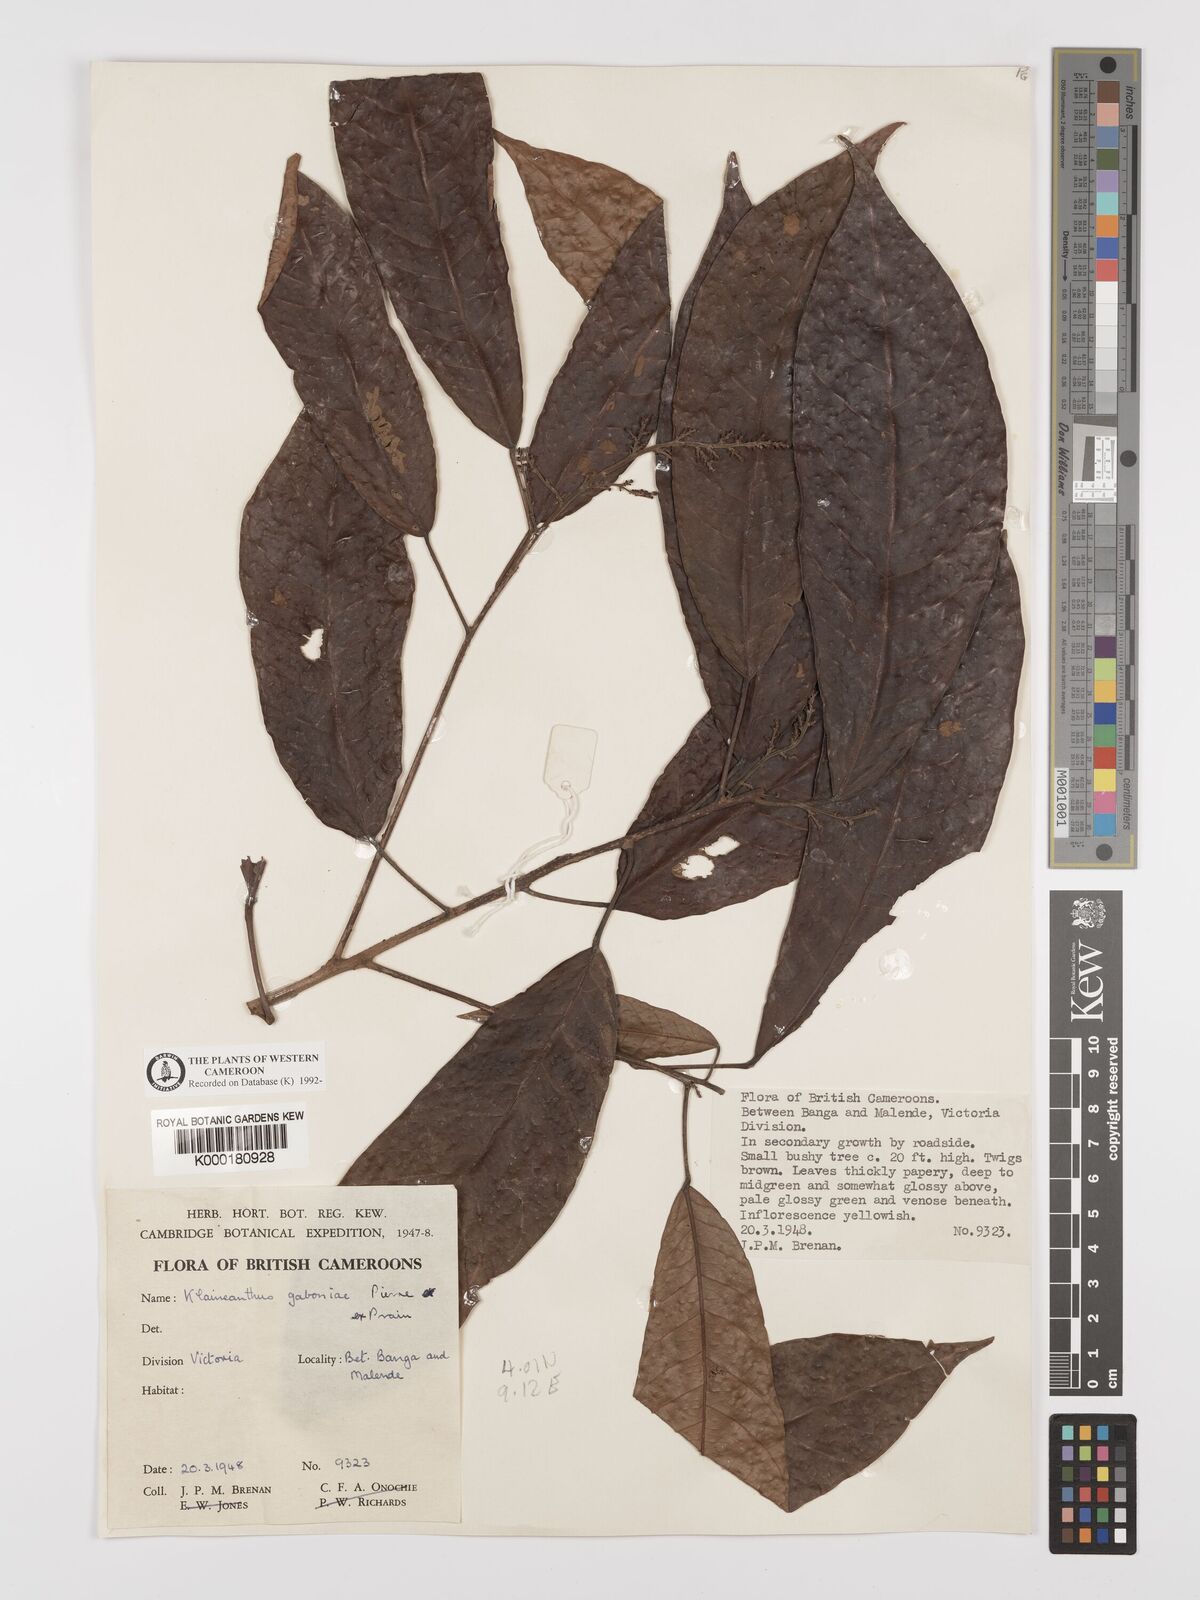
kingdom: Plantae
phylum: Tracheophyta
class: Magnoliopsida
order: Malpighiales
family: Euphorbiaceae
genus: Klaineanthus
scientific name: Klaineanthus
